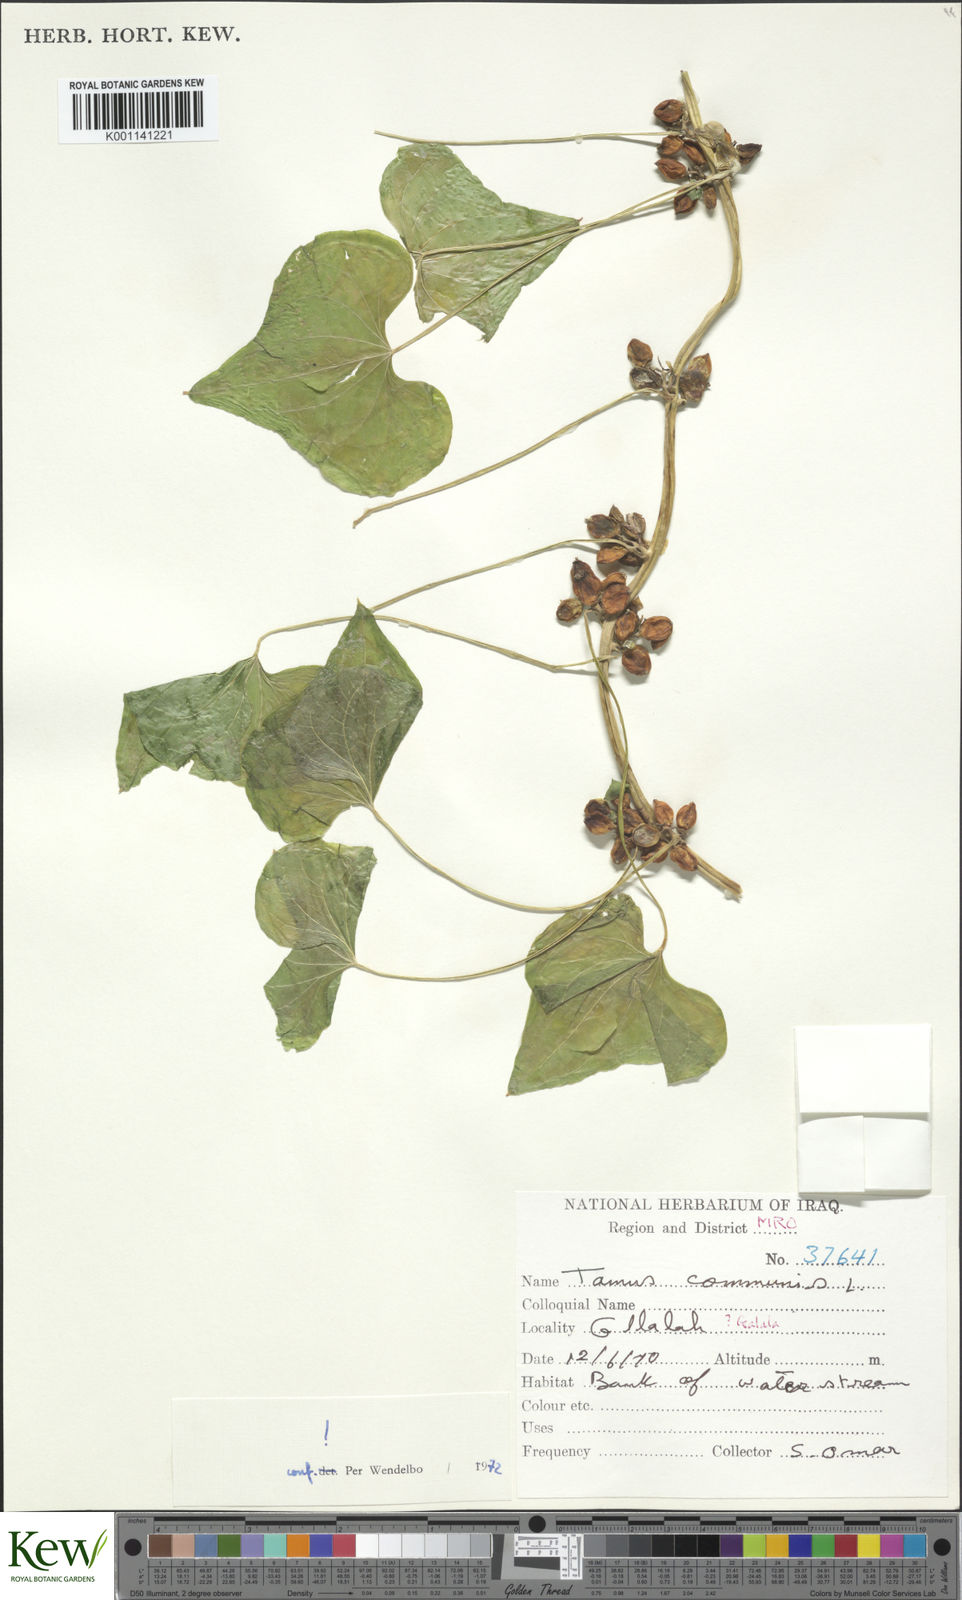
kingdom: Plantae
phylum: Tracheophyta
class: Liliopsida
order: Dioscoreales
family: Dioscoreaceae
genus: Dioscorea
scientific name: Dioscorea communis
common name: Black-bindweed
